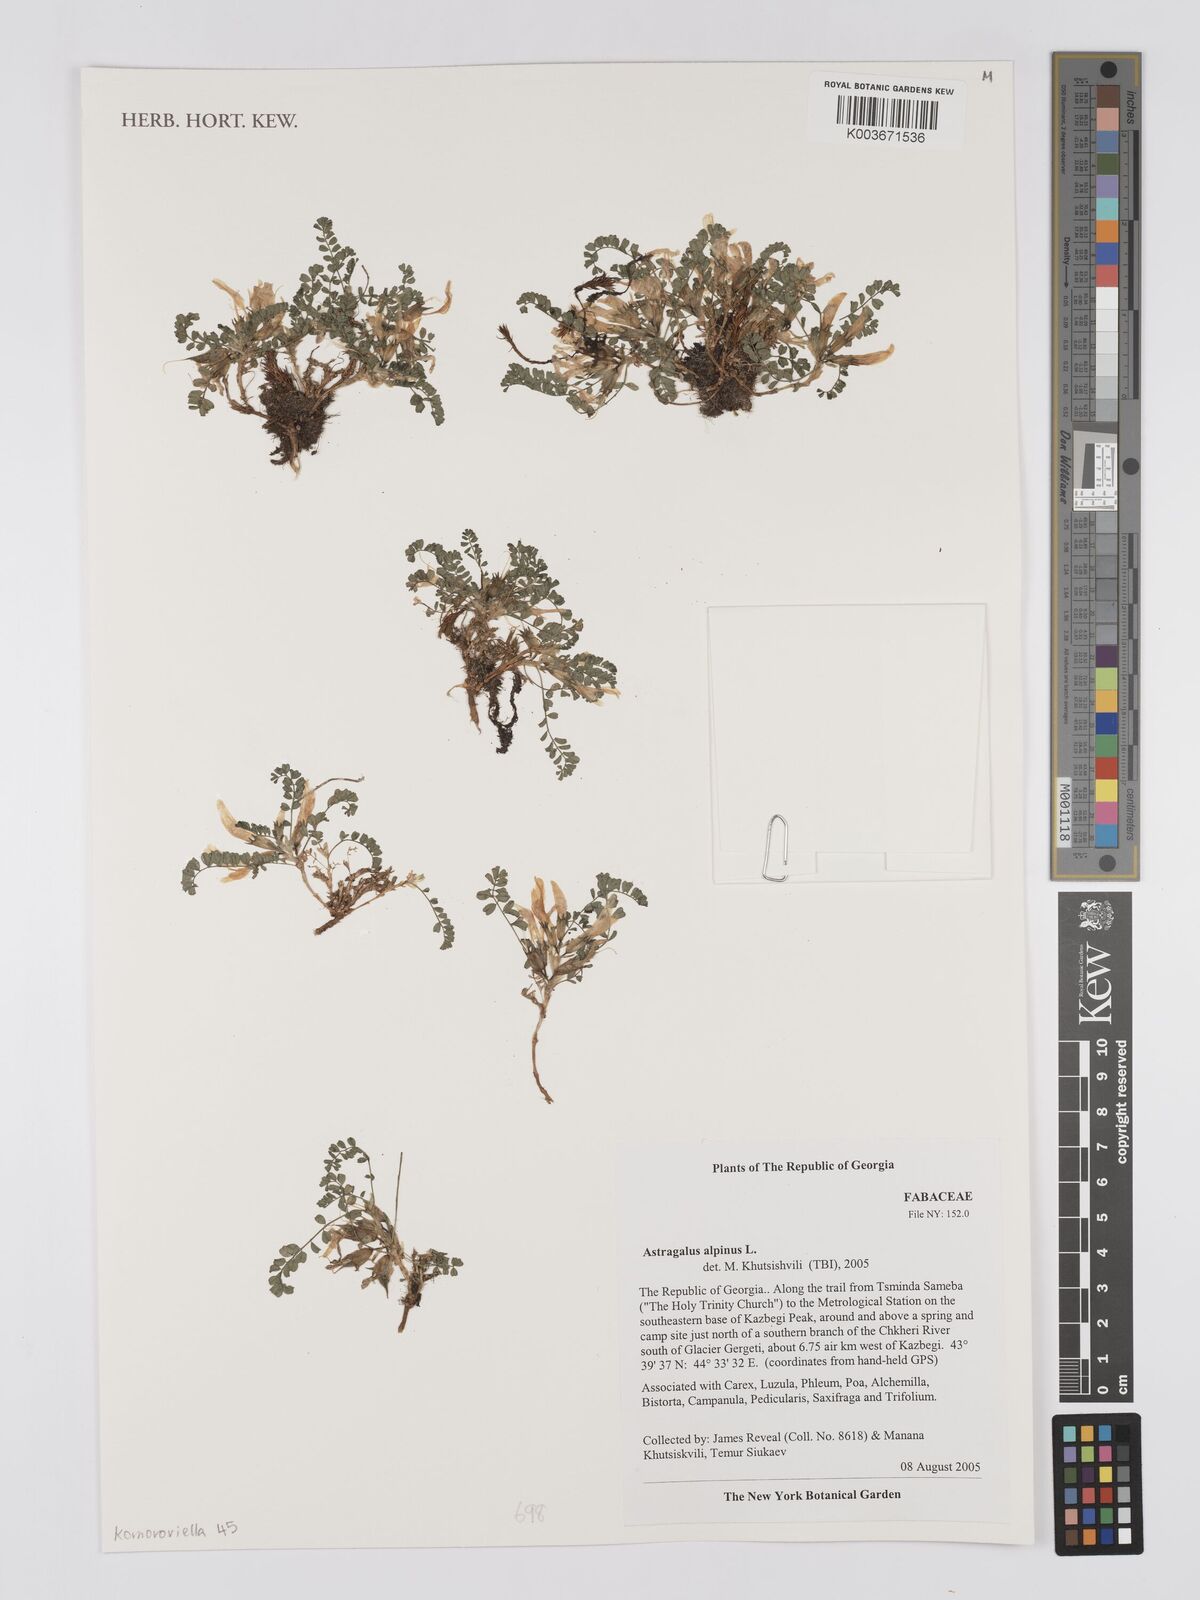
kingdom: Plantae
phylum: Tracheophyta
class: Magnoliopsida
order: Fabales
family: Fabaceae
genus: Astragalus
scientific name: Astragalus alpinus
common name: Alpine milk-vetch
